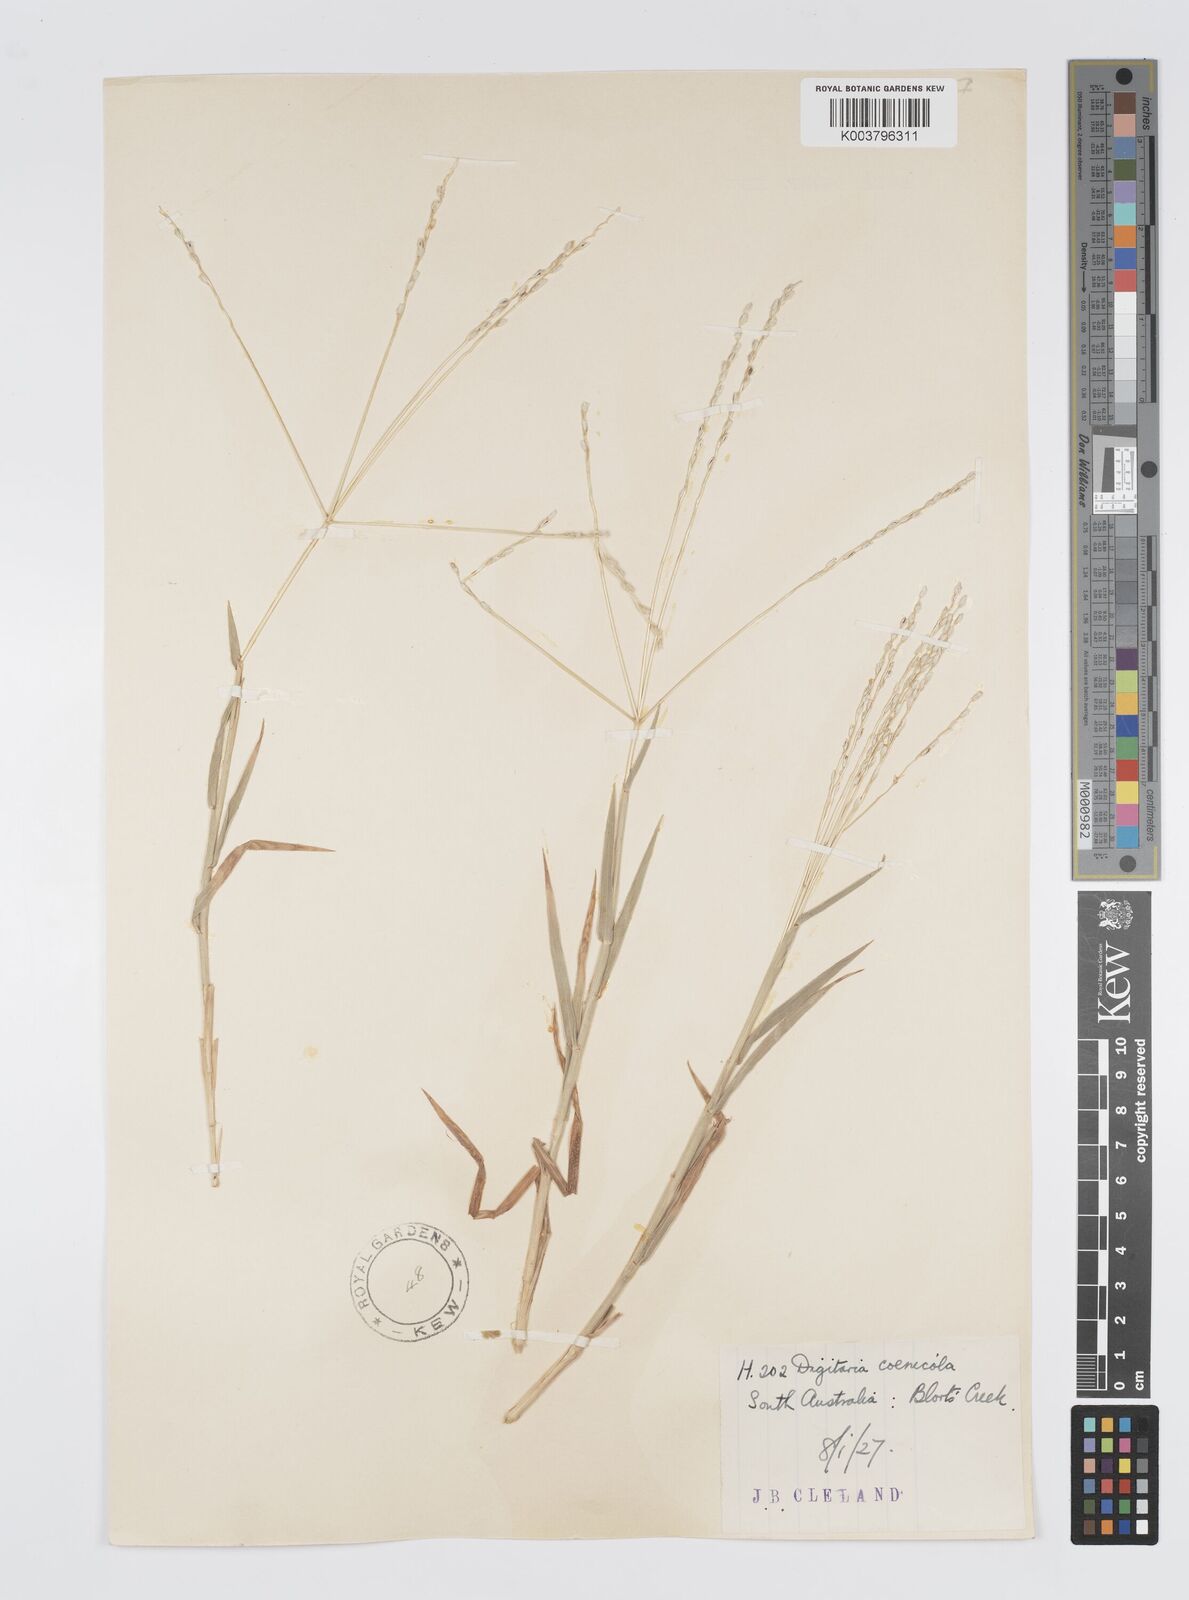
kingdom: Plantae
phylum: Tracheophyta
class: Liliopsida
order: Poales
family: Poaceae
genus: Digitaria
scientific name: Digitaria coenicola
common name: Kanta grass
